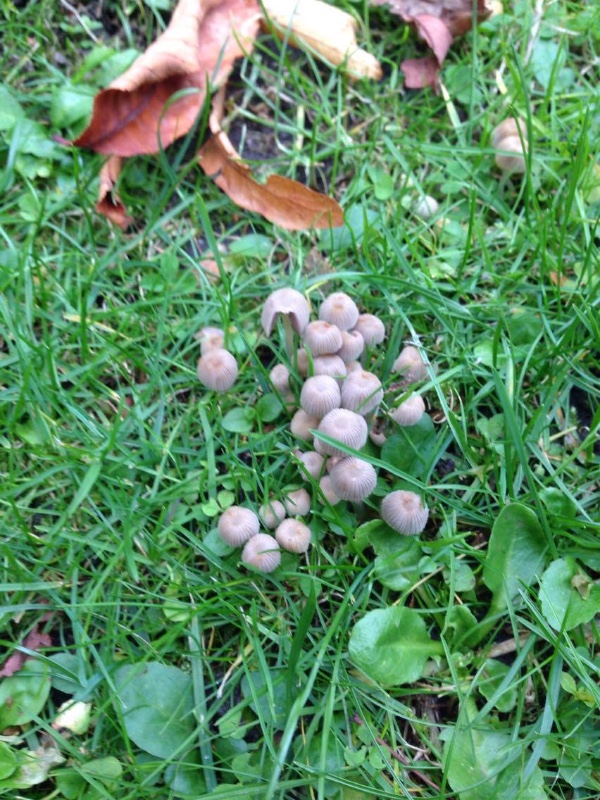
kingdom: Fungi
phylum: Basidiomycota
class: Agaricomycetes
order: Agaricales
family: Psathyrellaceae
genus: Coprinellus
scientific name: Coprinellus disseminatus
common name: bredsået blækhat
